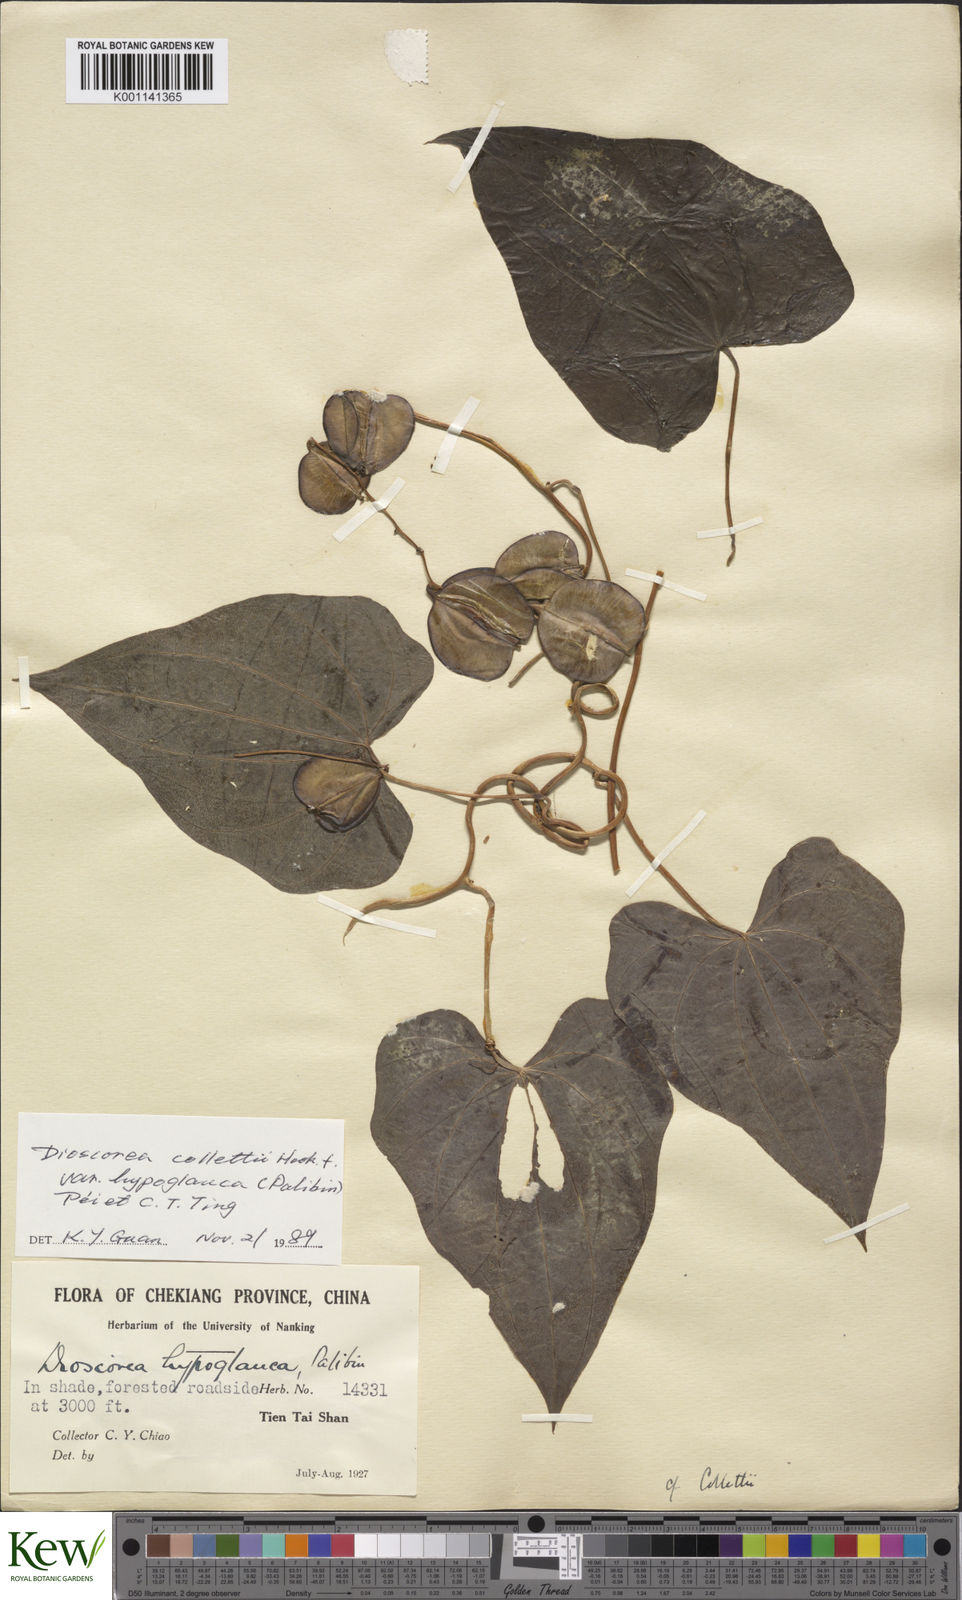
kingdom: Plantae
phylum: Tracheophyta
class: Liliopsida
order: Dioscoreales
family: Dioscoreaceae
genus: Dioscorea
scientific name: Dioscorea collettii
